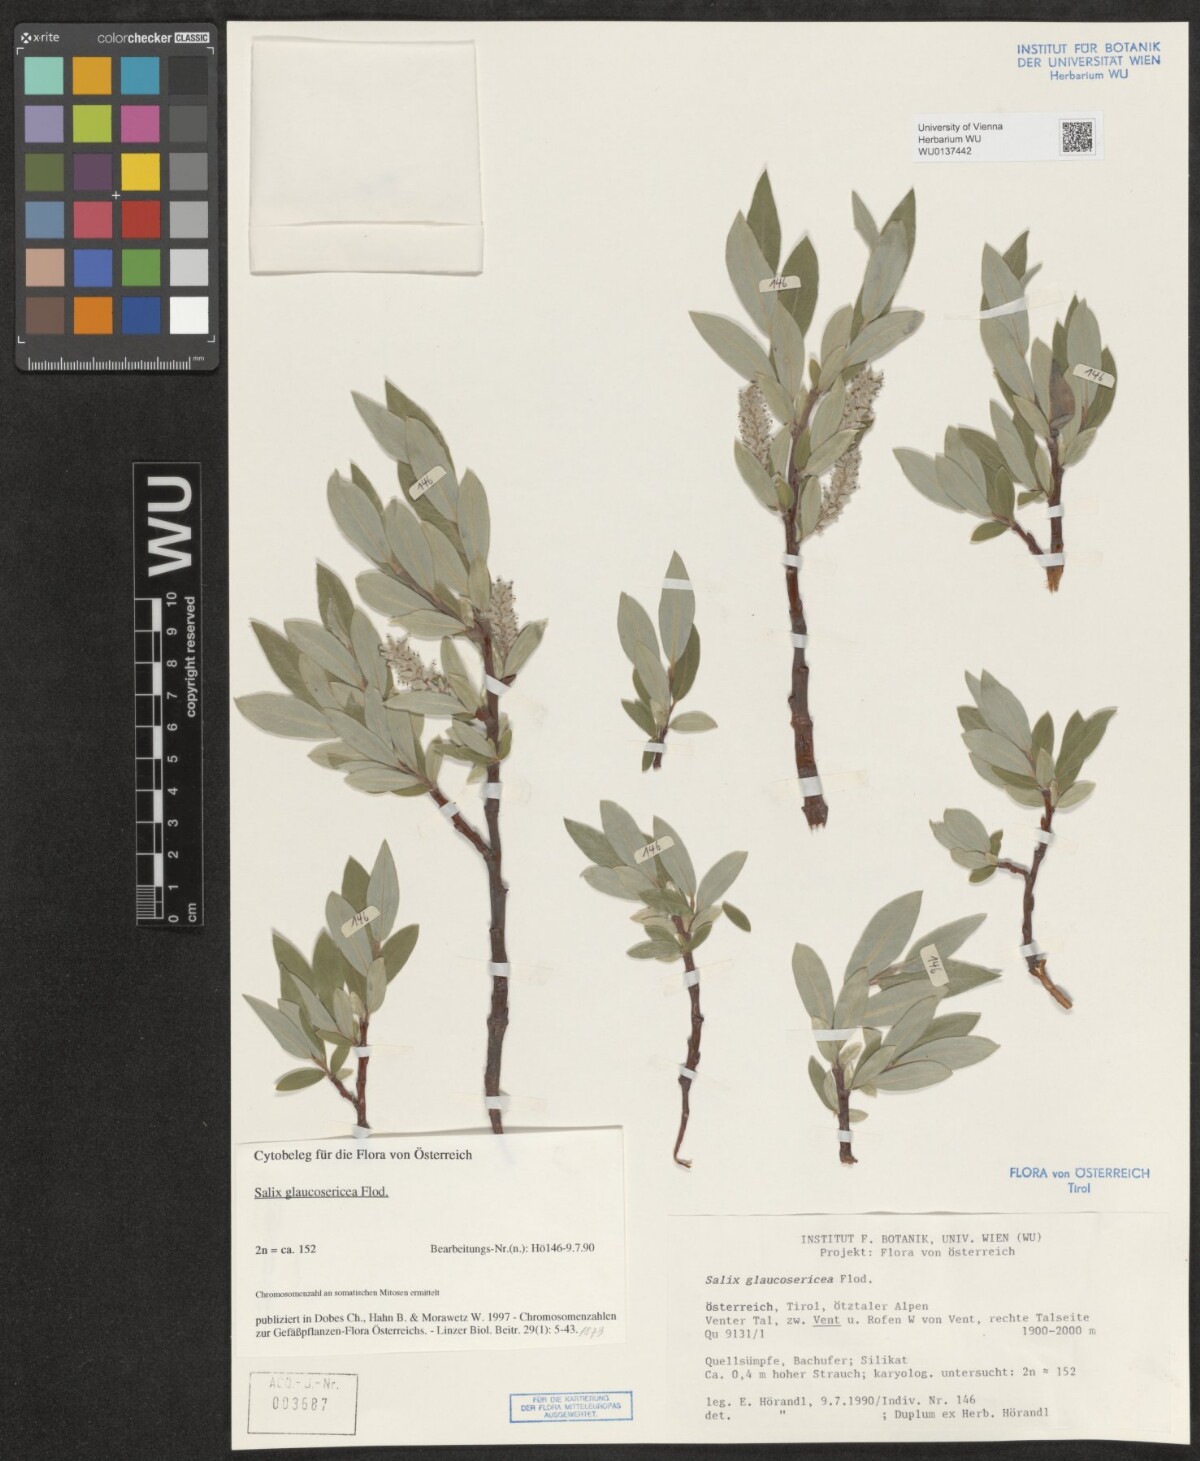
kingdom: Plantae
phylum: Tracheophyta
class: Magnoliopsida
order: Malpighiales
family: Salicaceae
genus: Salix
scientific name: Salix glaucosericea
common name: Alpine gray willow
